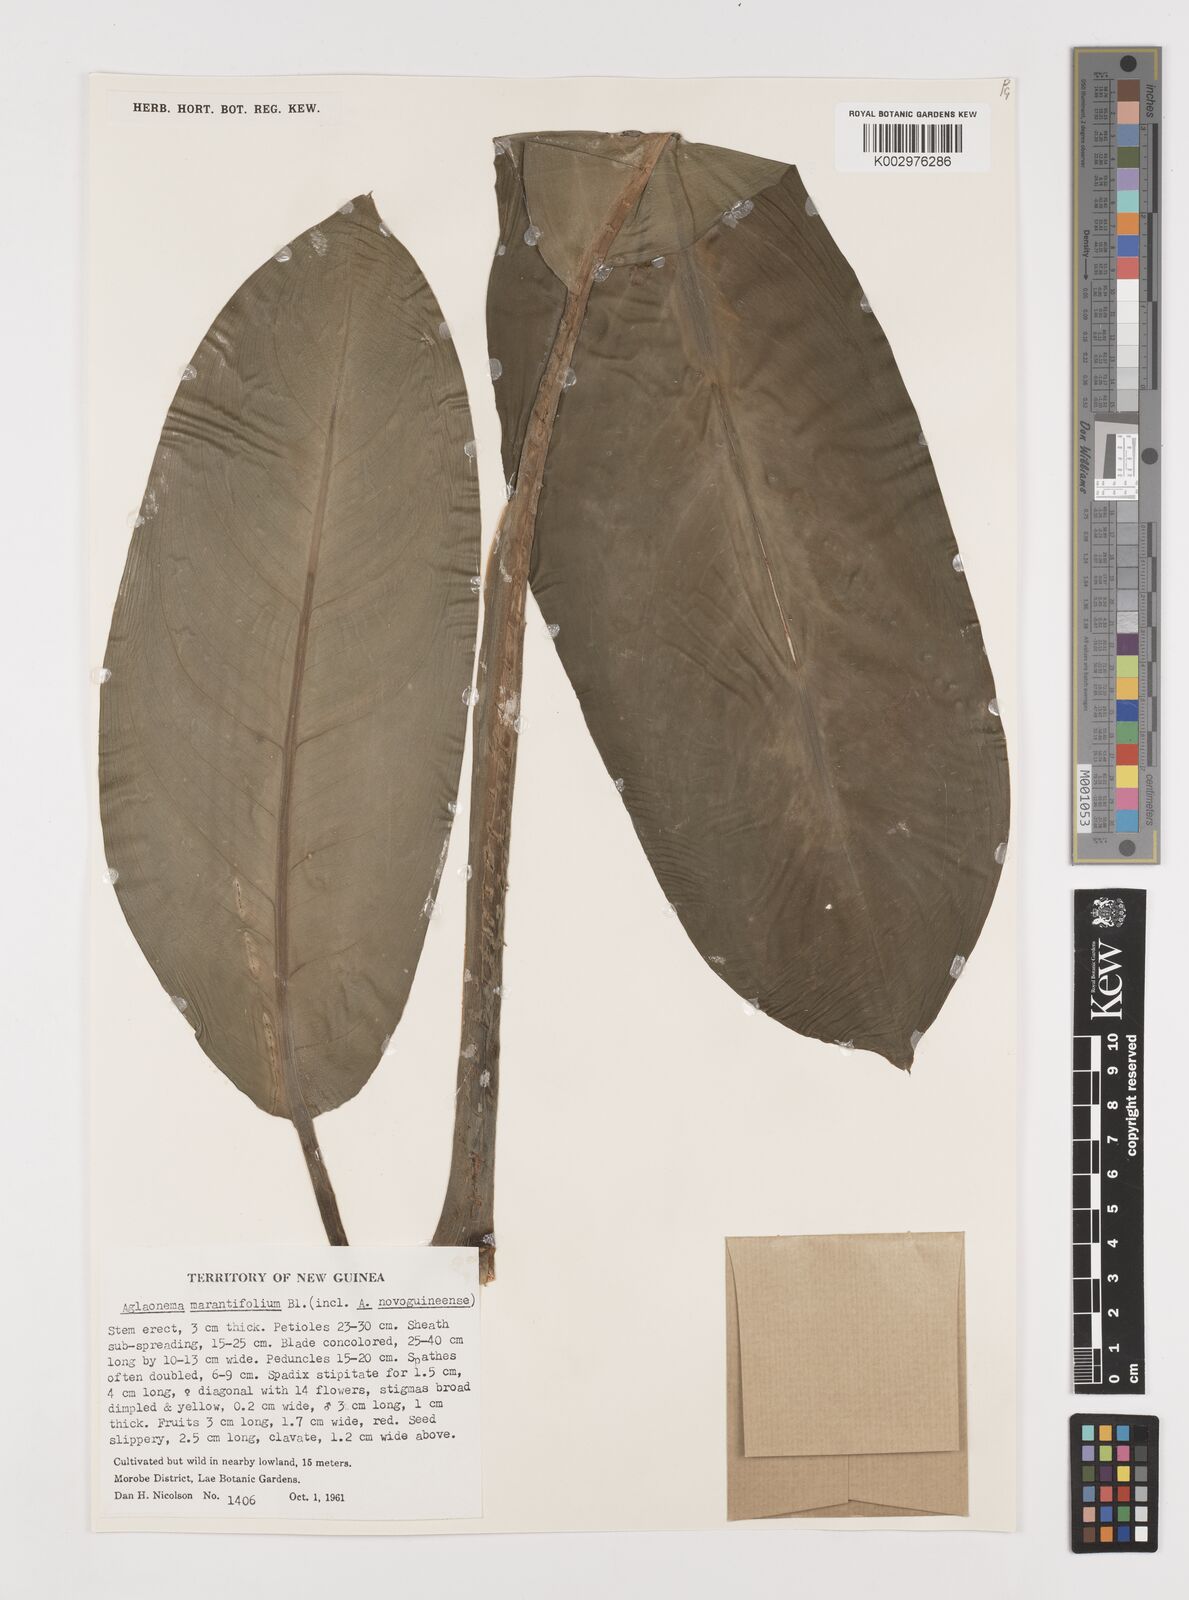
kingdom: Plantae
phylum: Tracheophyta
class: Liliopsida
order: Alismatales
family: Araceae
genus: Aglaonema
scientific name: Aglaonema marantifolium
